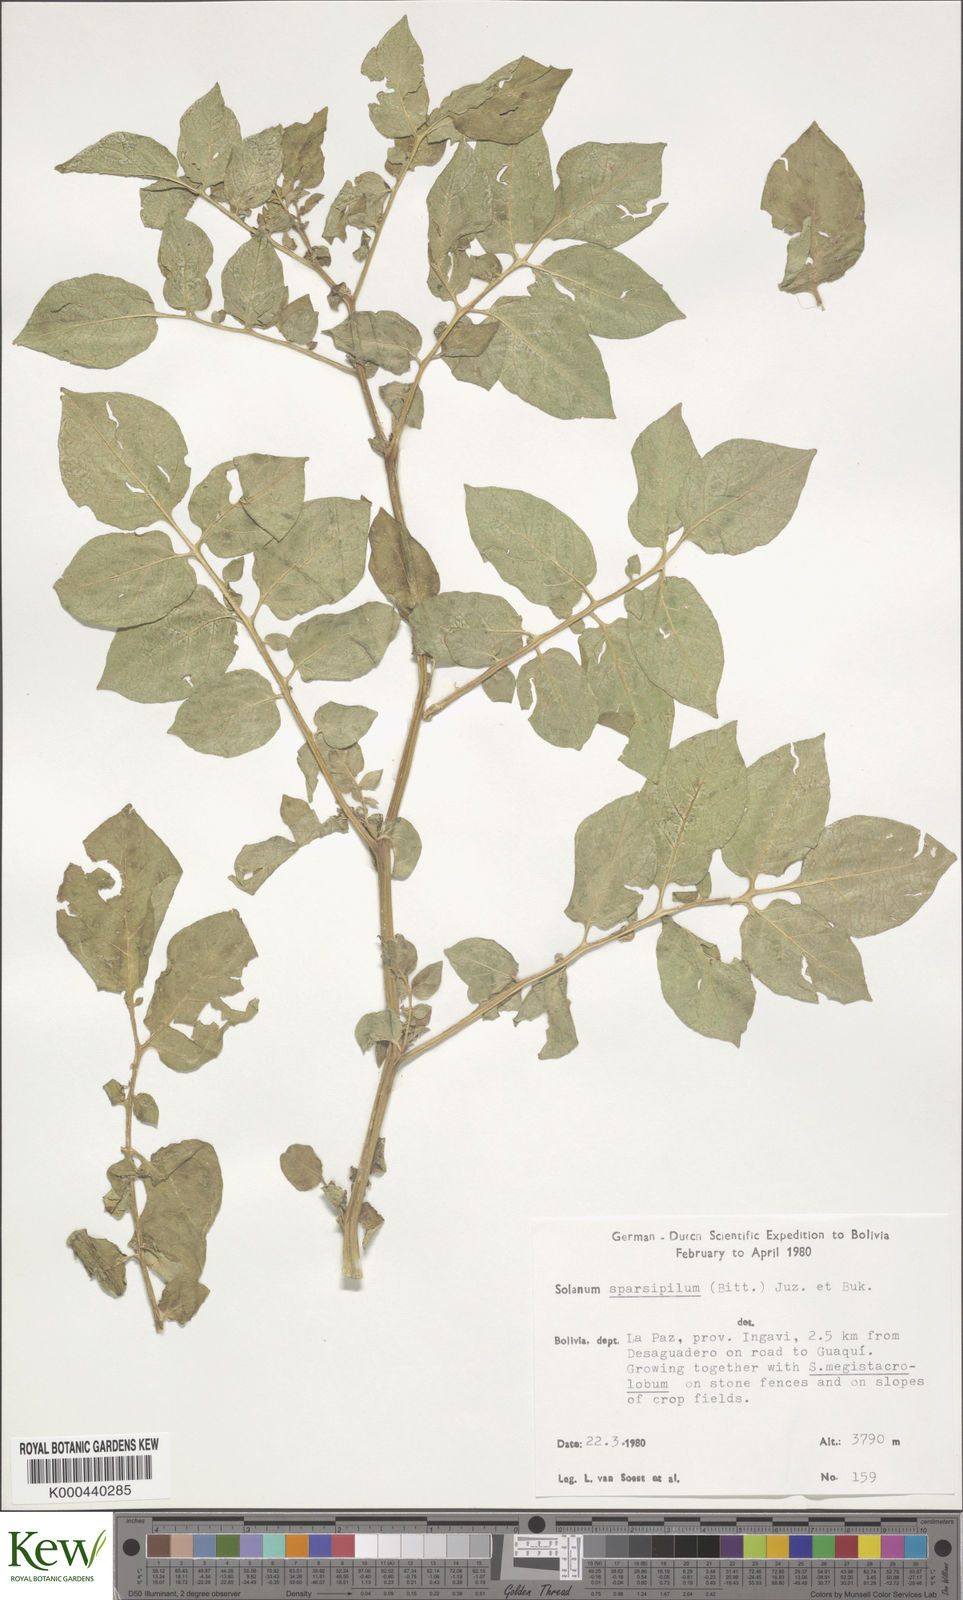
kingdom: Plantae
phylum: Tracheophyta
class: Magnoliopsida
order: Solanales
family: Solanaceae
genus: Solanum
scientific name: Solanum brevicaule
